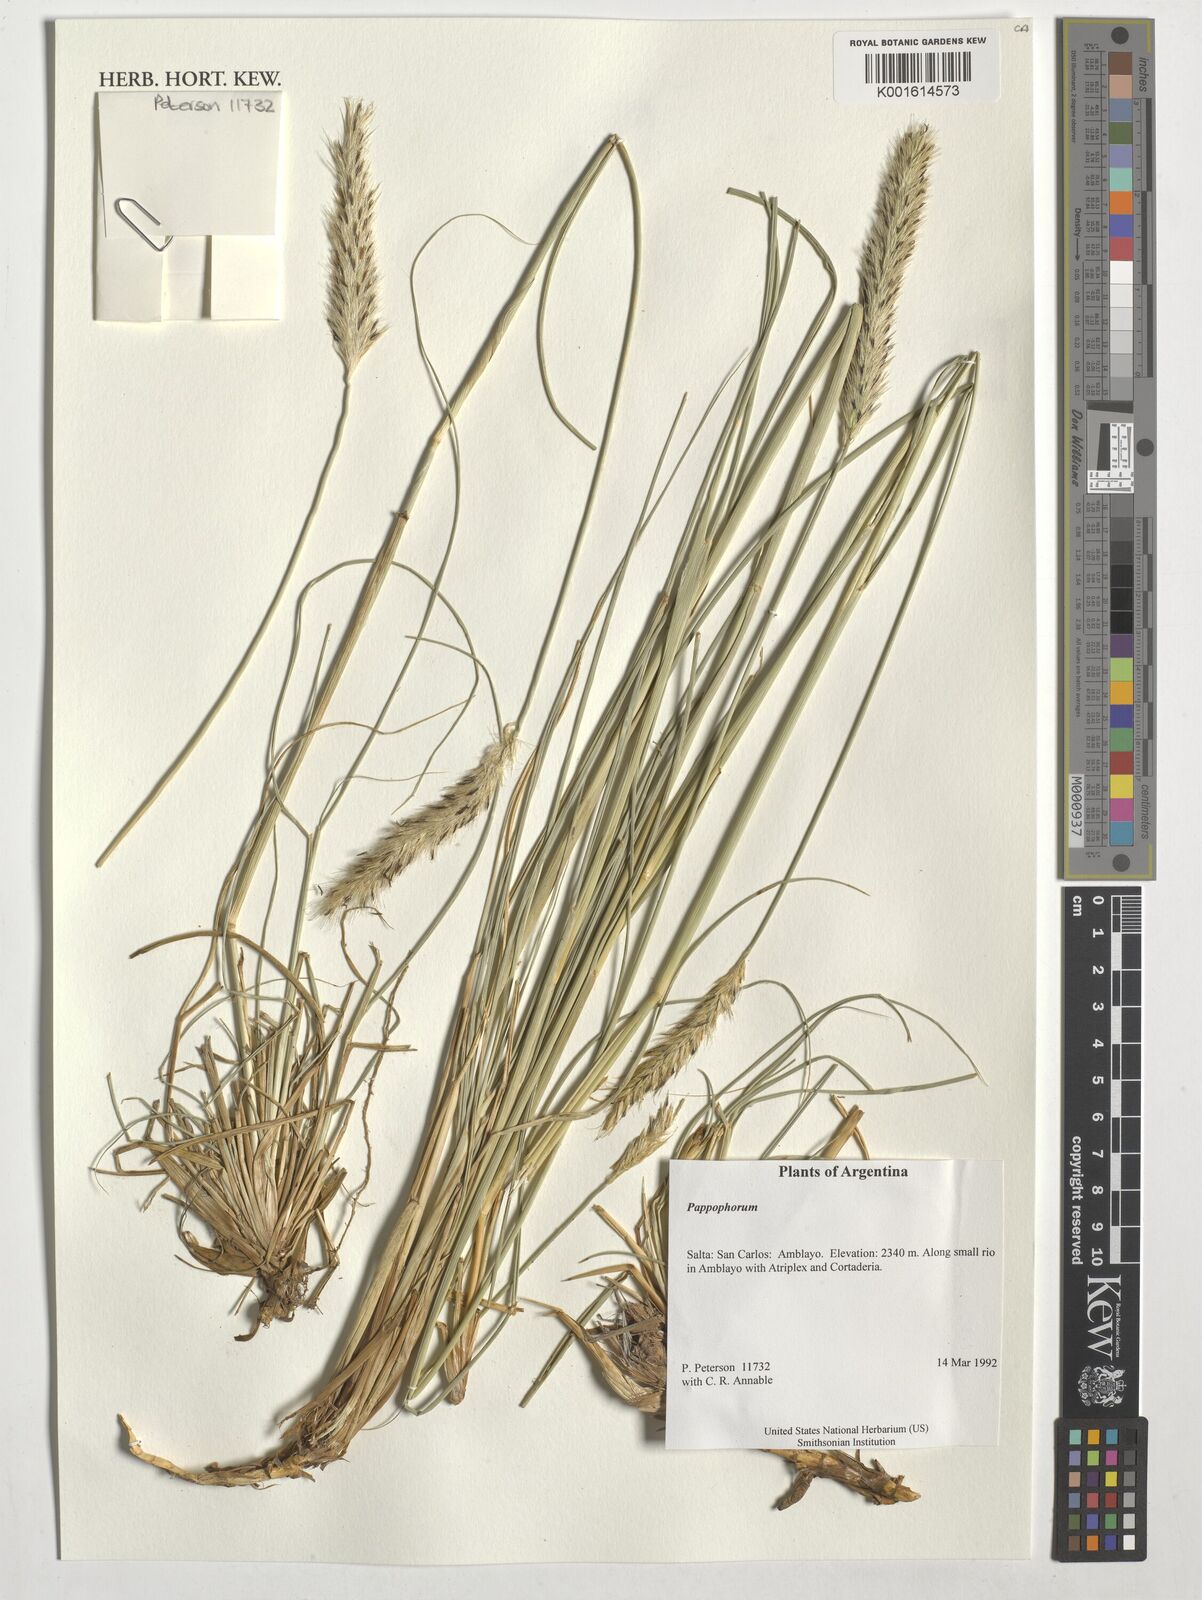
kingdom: Plantae
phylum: Tracheophyta
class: Liliopsida
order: Poales
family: Poaceae
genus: Pappophorum
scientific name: Pappophorum
